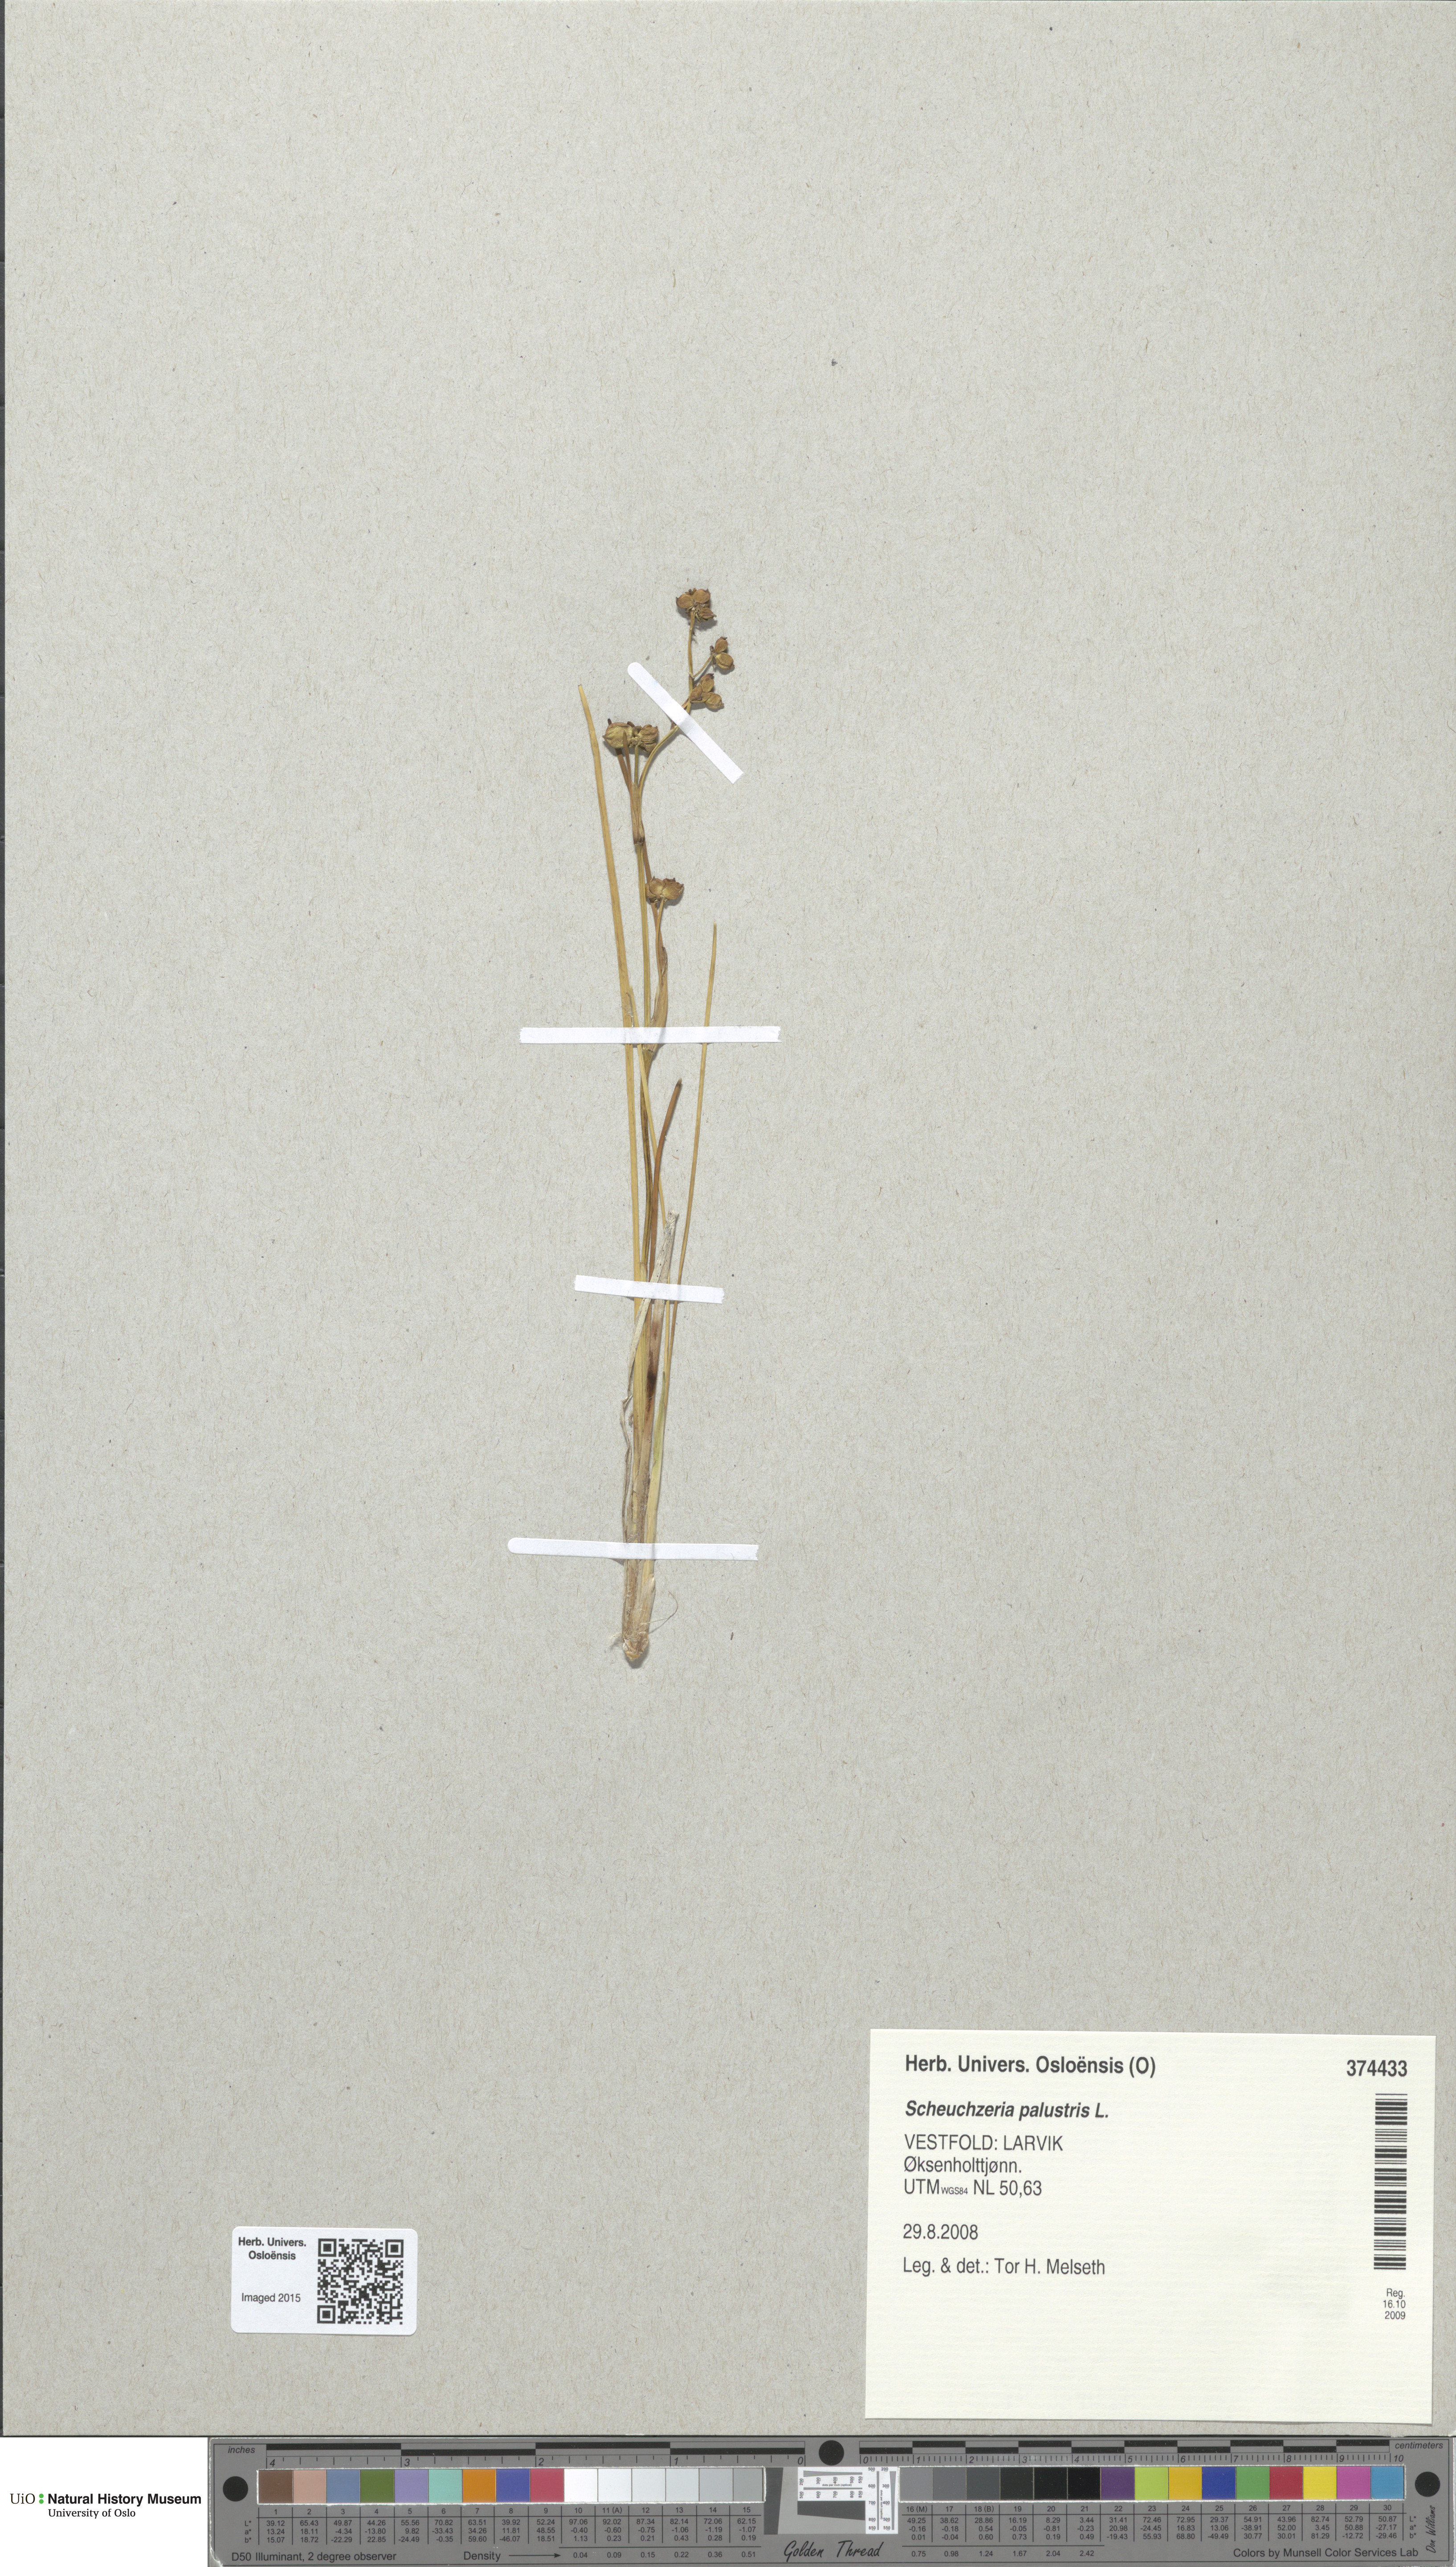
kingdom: Plantae
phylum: Tracheophyta
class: Liliopsida
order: Alismatales
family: Scheuchzeriaceae
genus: Scheuchzeria
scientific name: Scheuchzeria palustris
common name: Rannoch-rush
